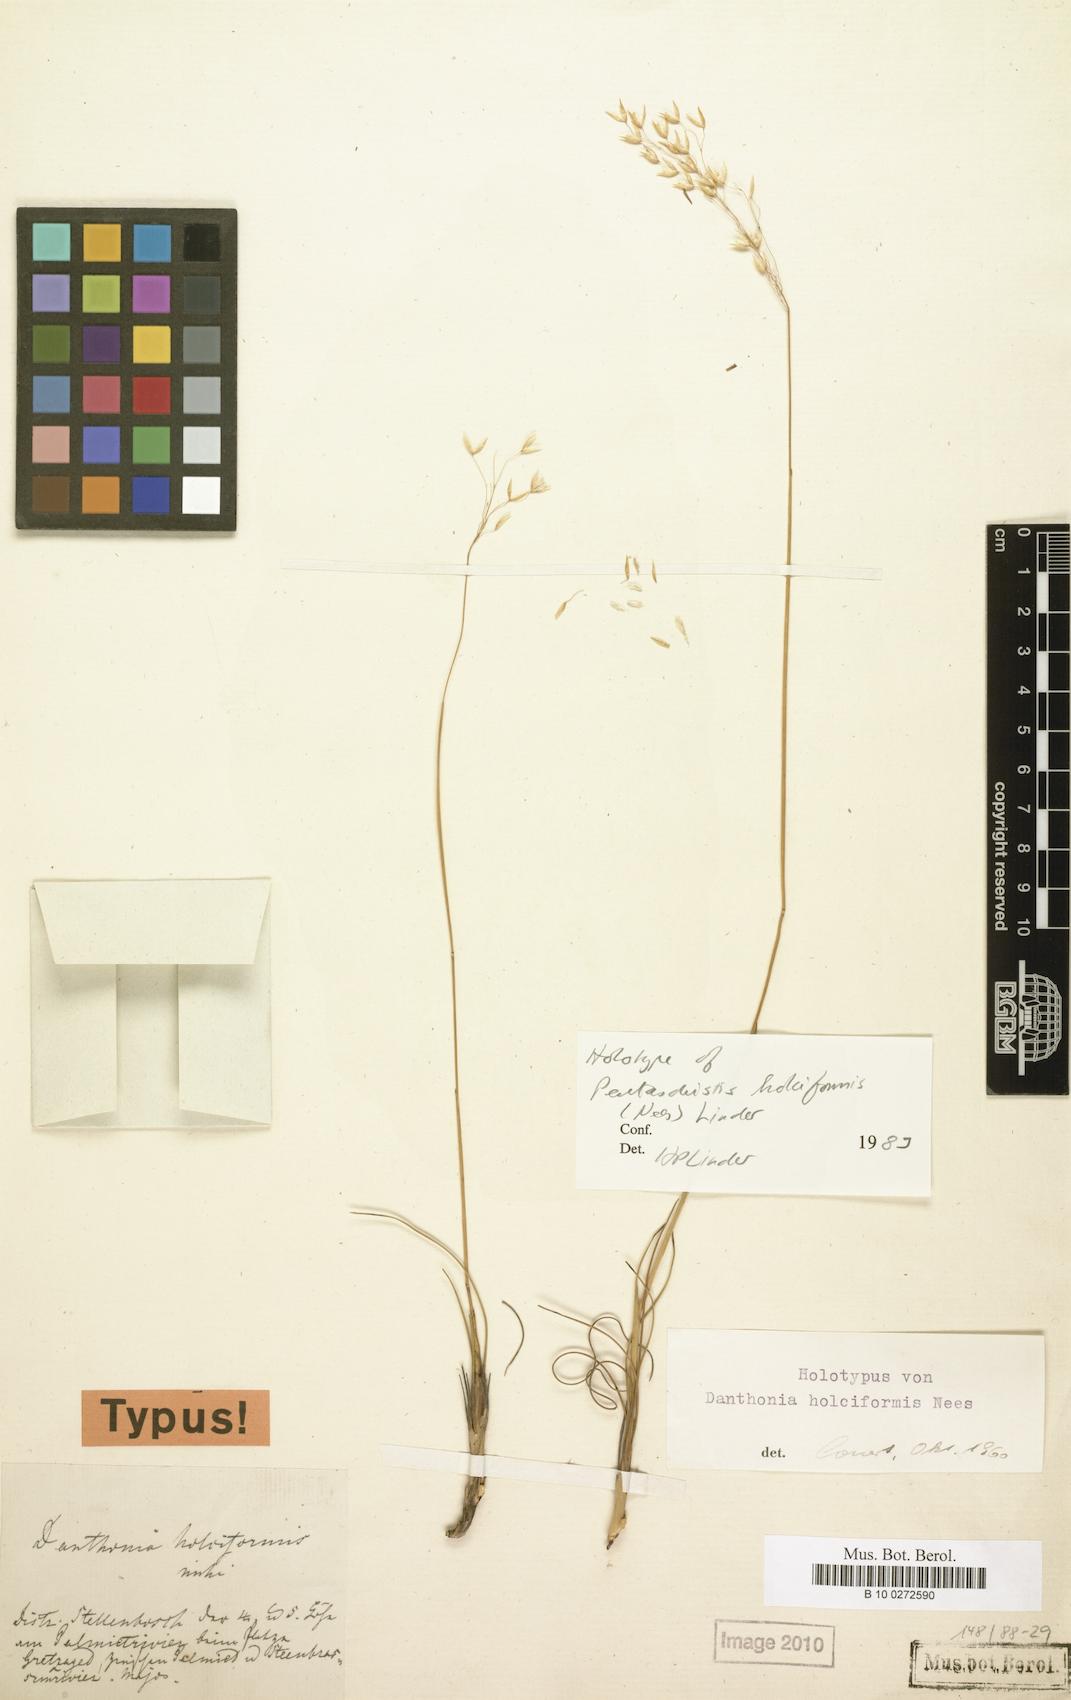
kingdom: Plantae
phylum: Tracheophyta
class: Liliopsida
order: Poales
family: Poaceae
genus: Pentameris
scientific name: Pentameris holciformis
